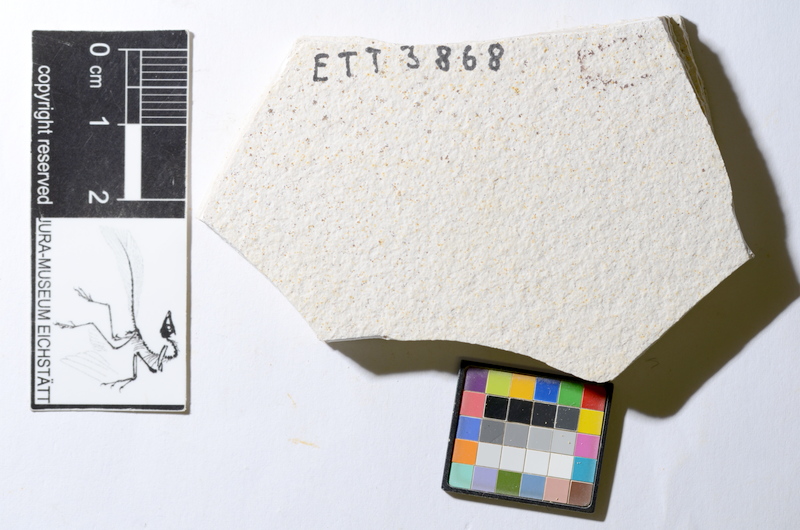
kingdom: Animalia
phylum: Chordata
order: Salmoniformes
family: Orthogonikleithridae
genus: Orthogonikleithrus
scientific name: Orthogonikleithrus hoelli
